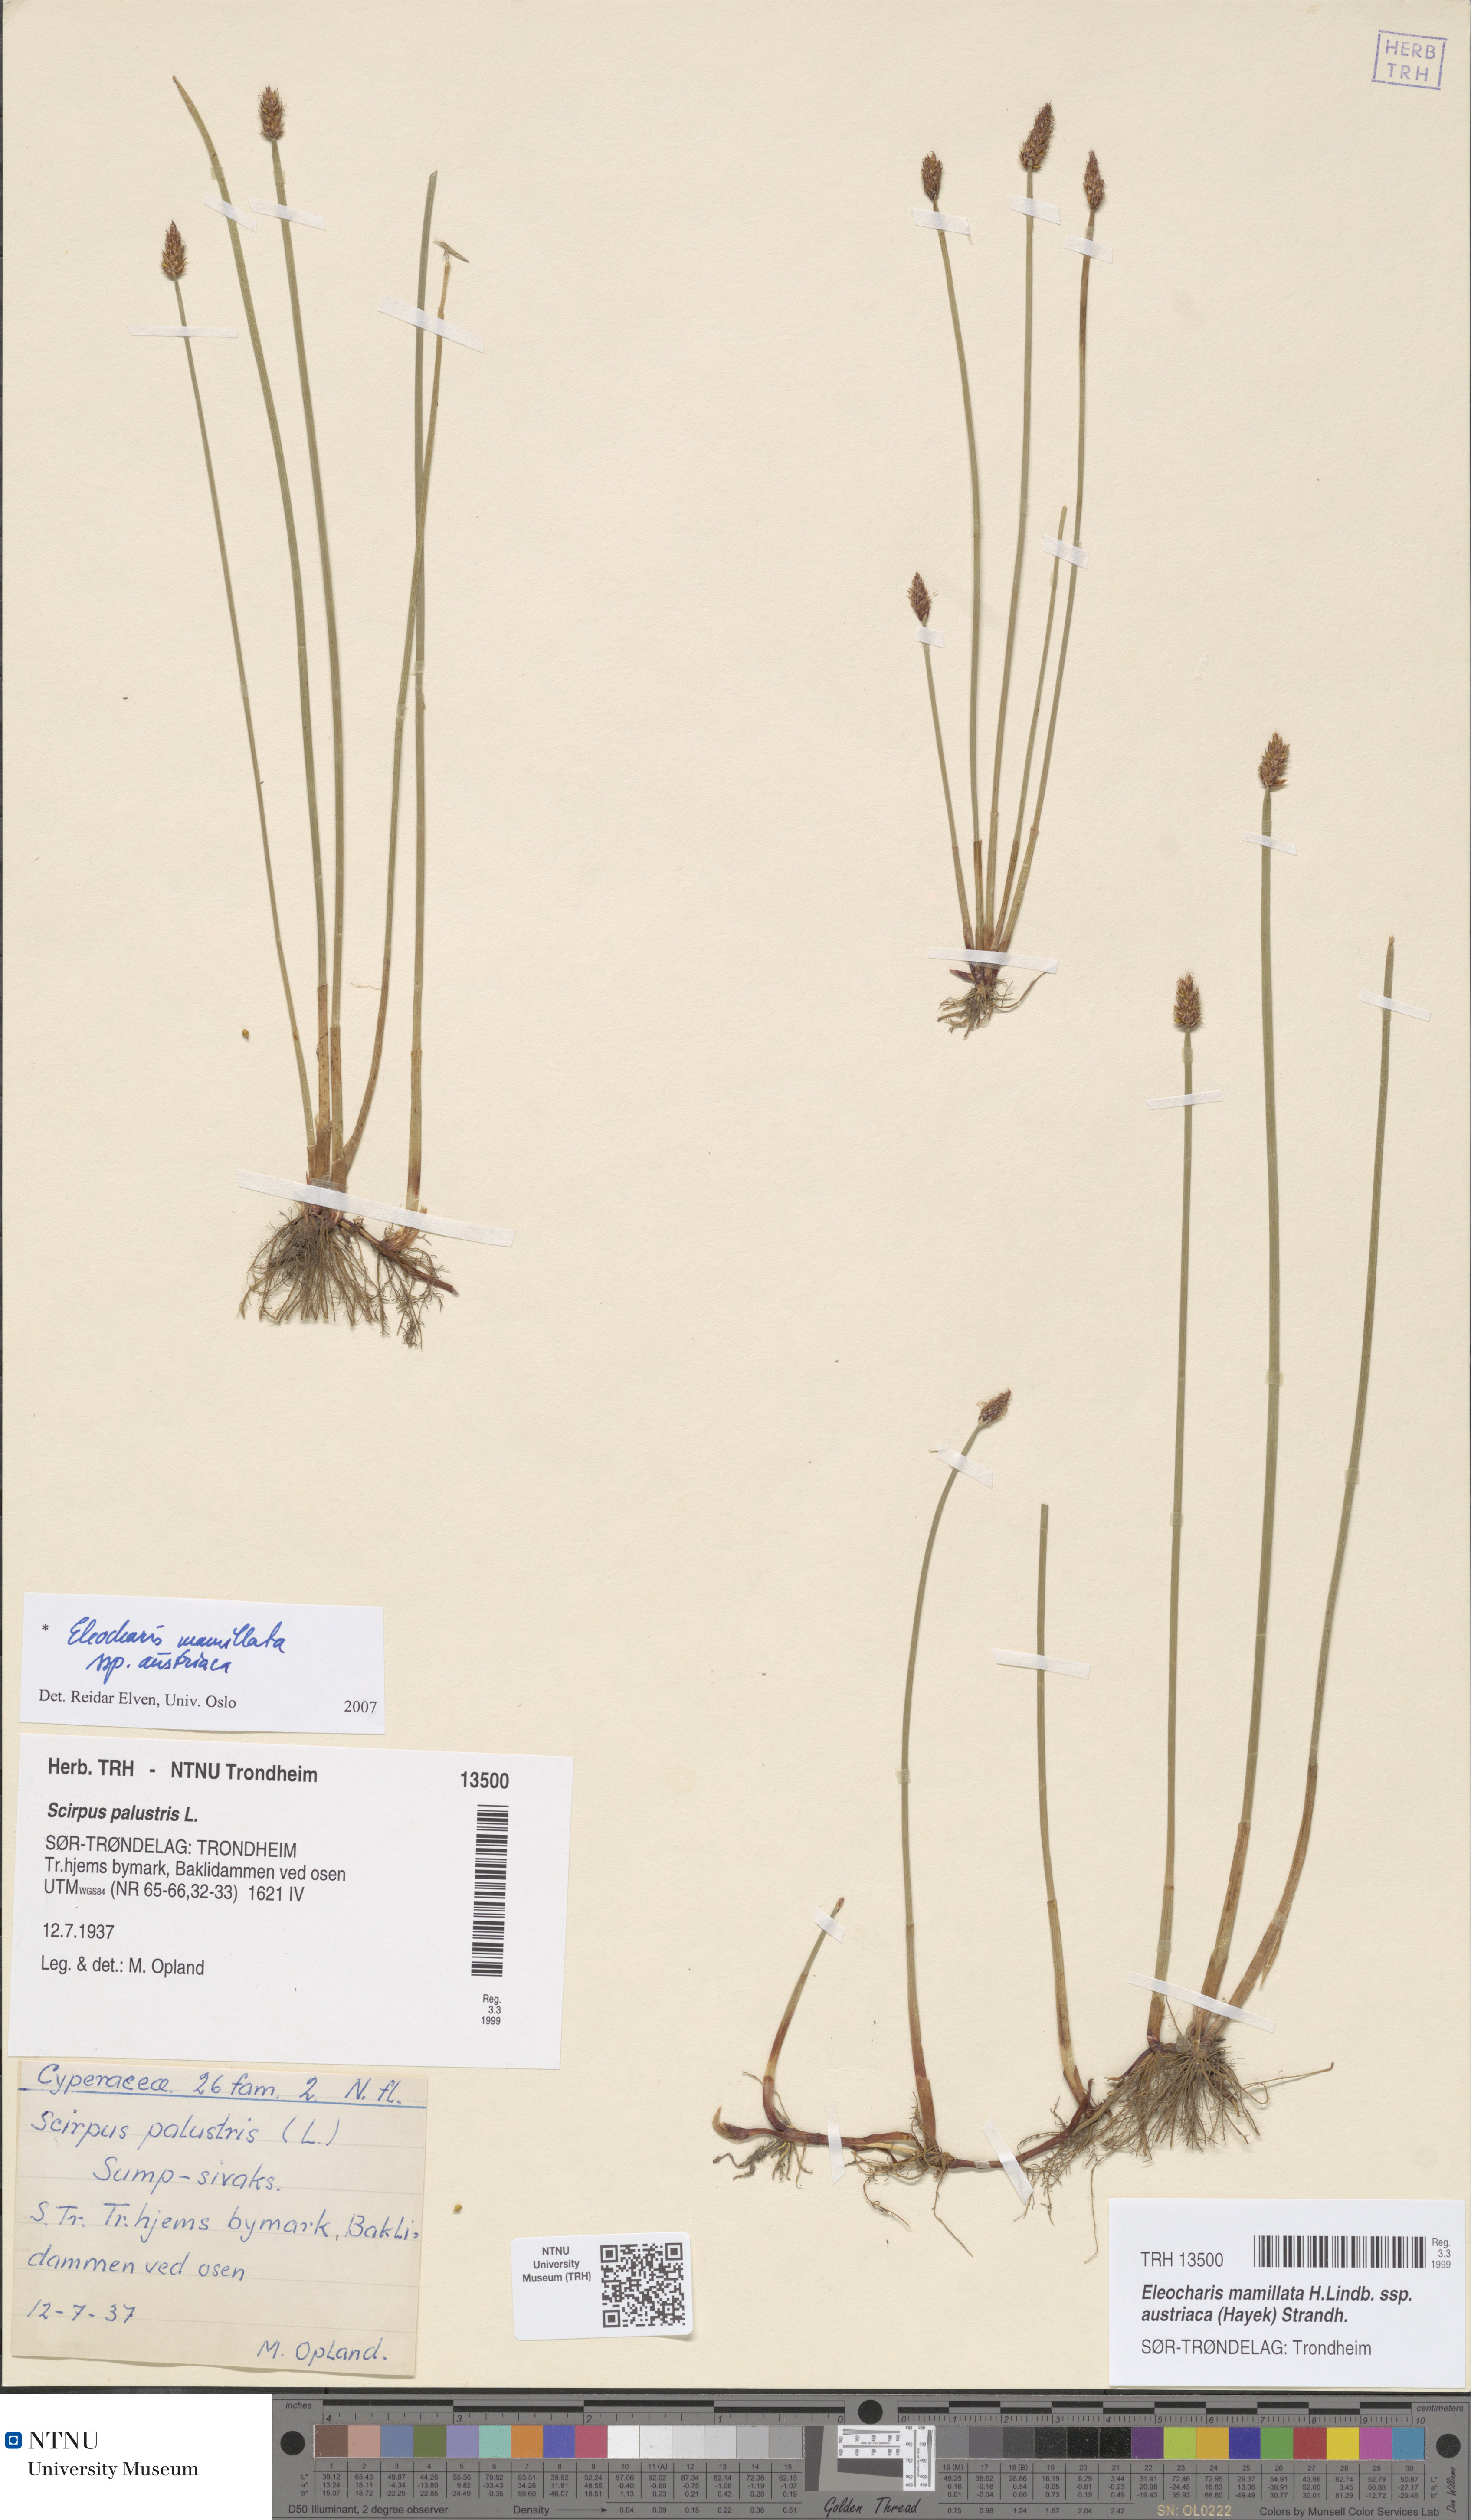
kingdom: Plantae
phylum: Tracheophyta
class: Liliopsida
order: Poales
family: Cyperaceae
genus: Eleocharis
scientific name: Eleocharis mamillata
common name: Northern spike-rush
